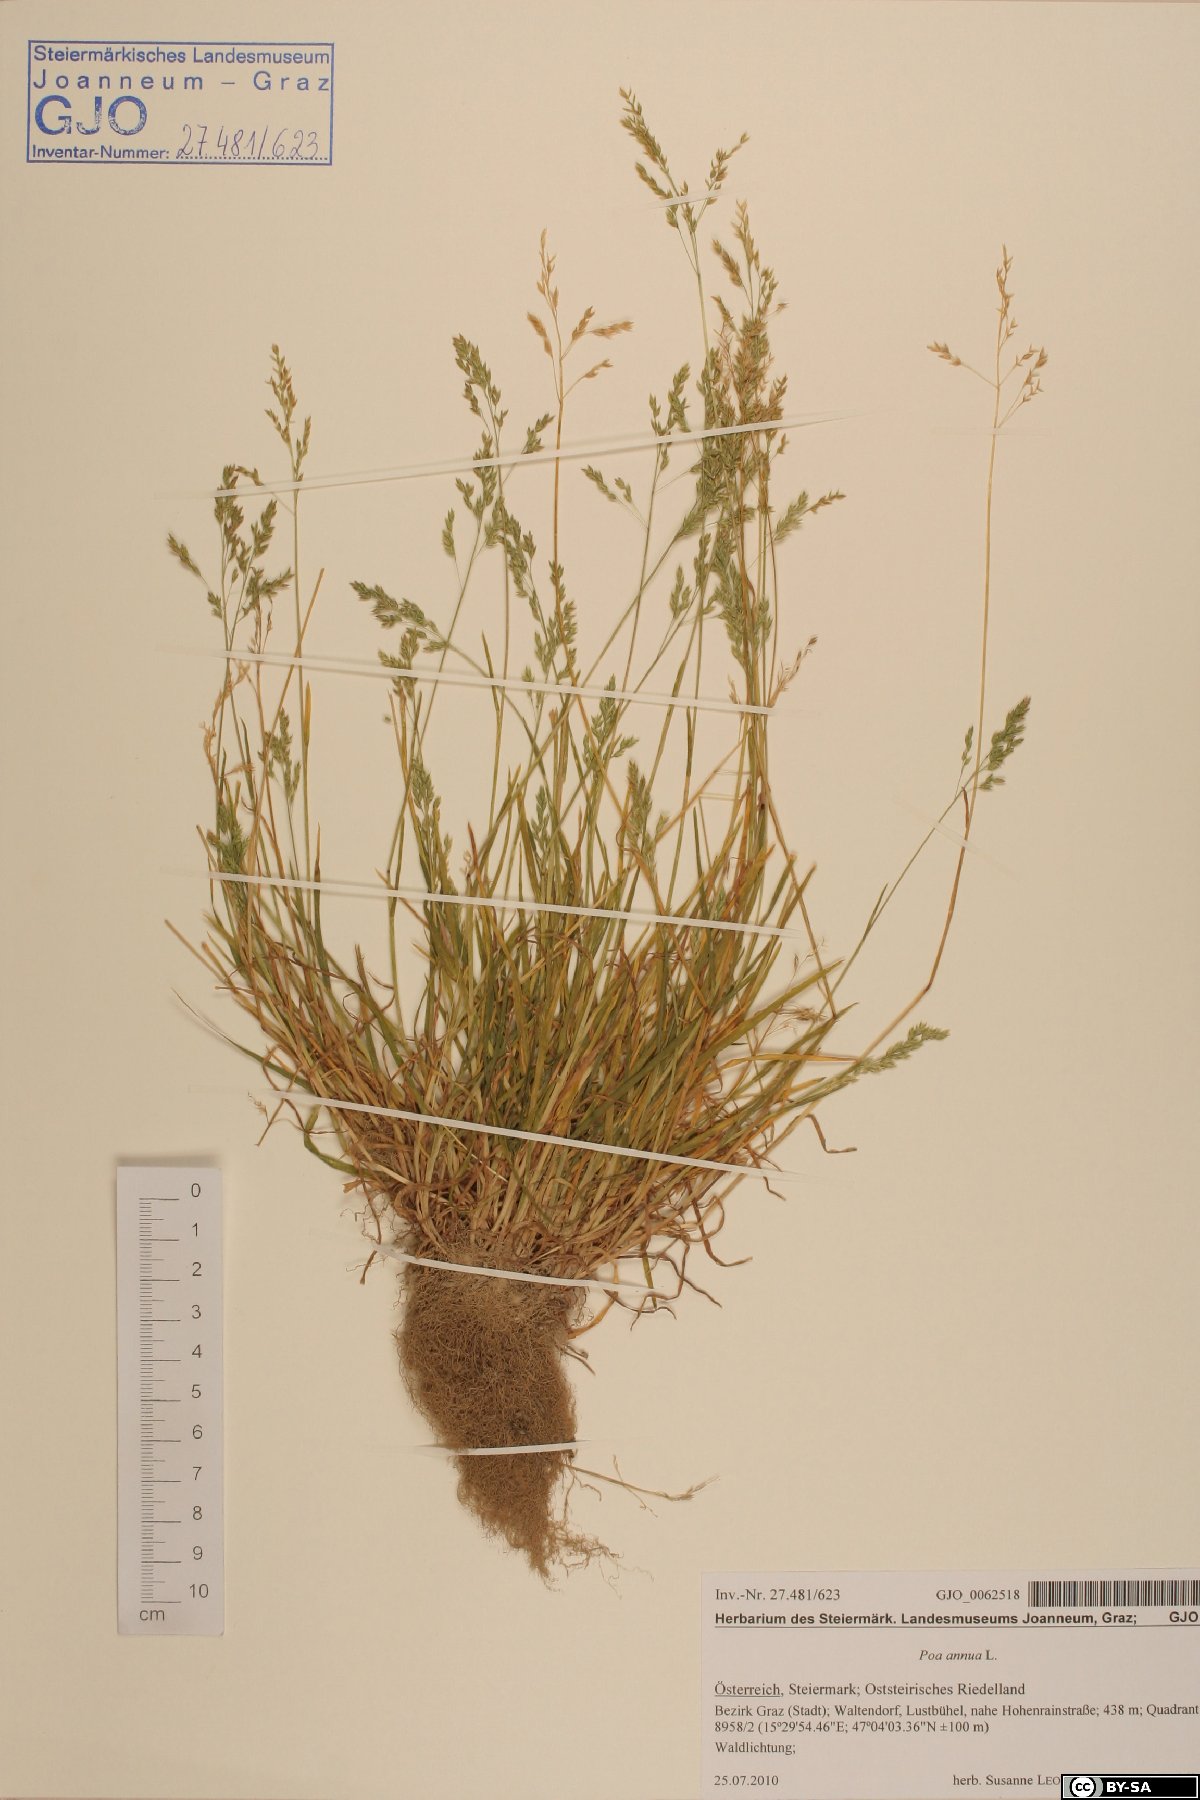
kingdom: Plantae
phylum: Tracheophyta
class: Liliopsida
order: Poales
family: Poaceae
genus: Poa
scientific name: Poa annua
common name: Annual bluegrass
